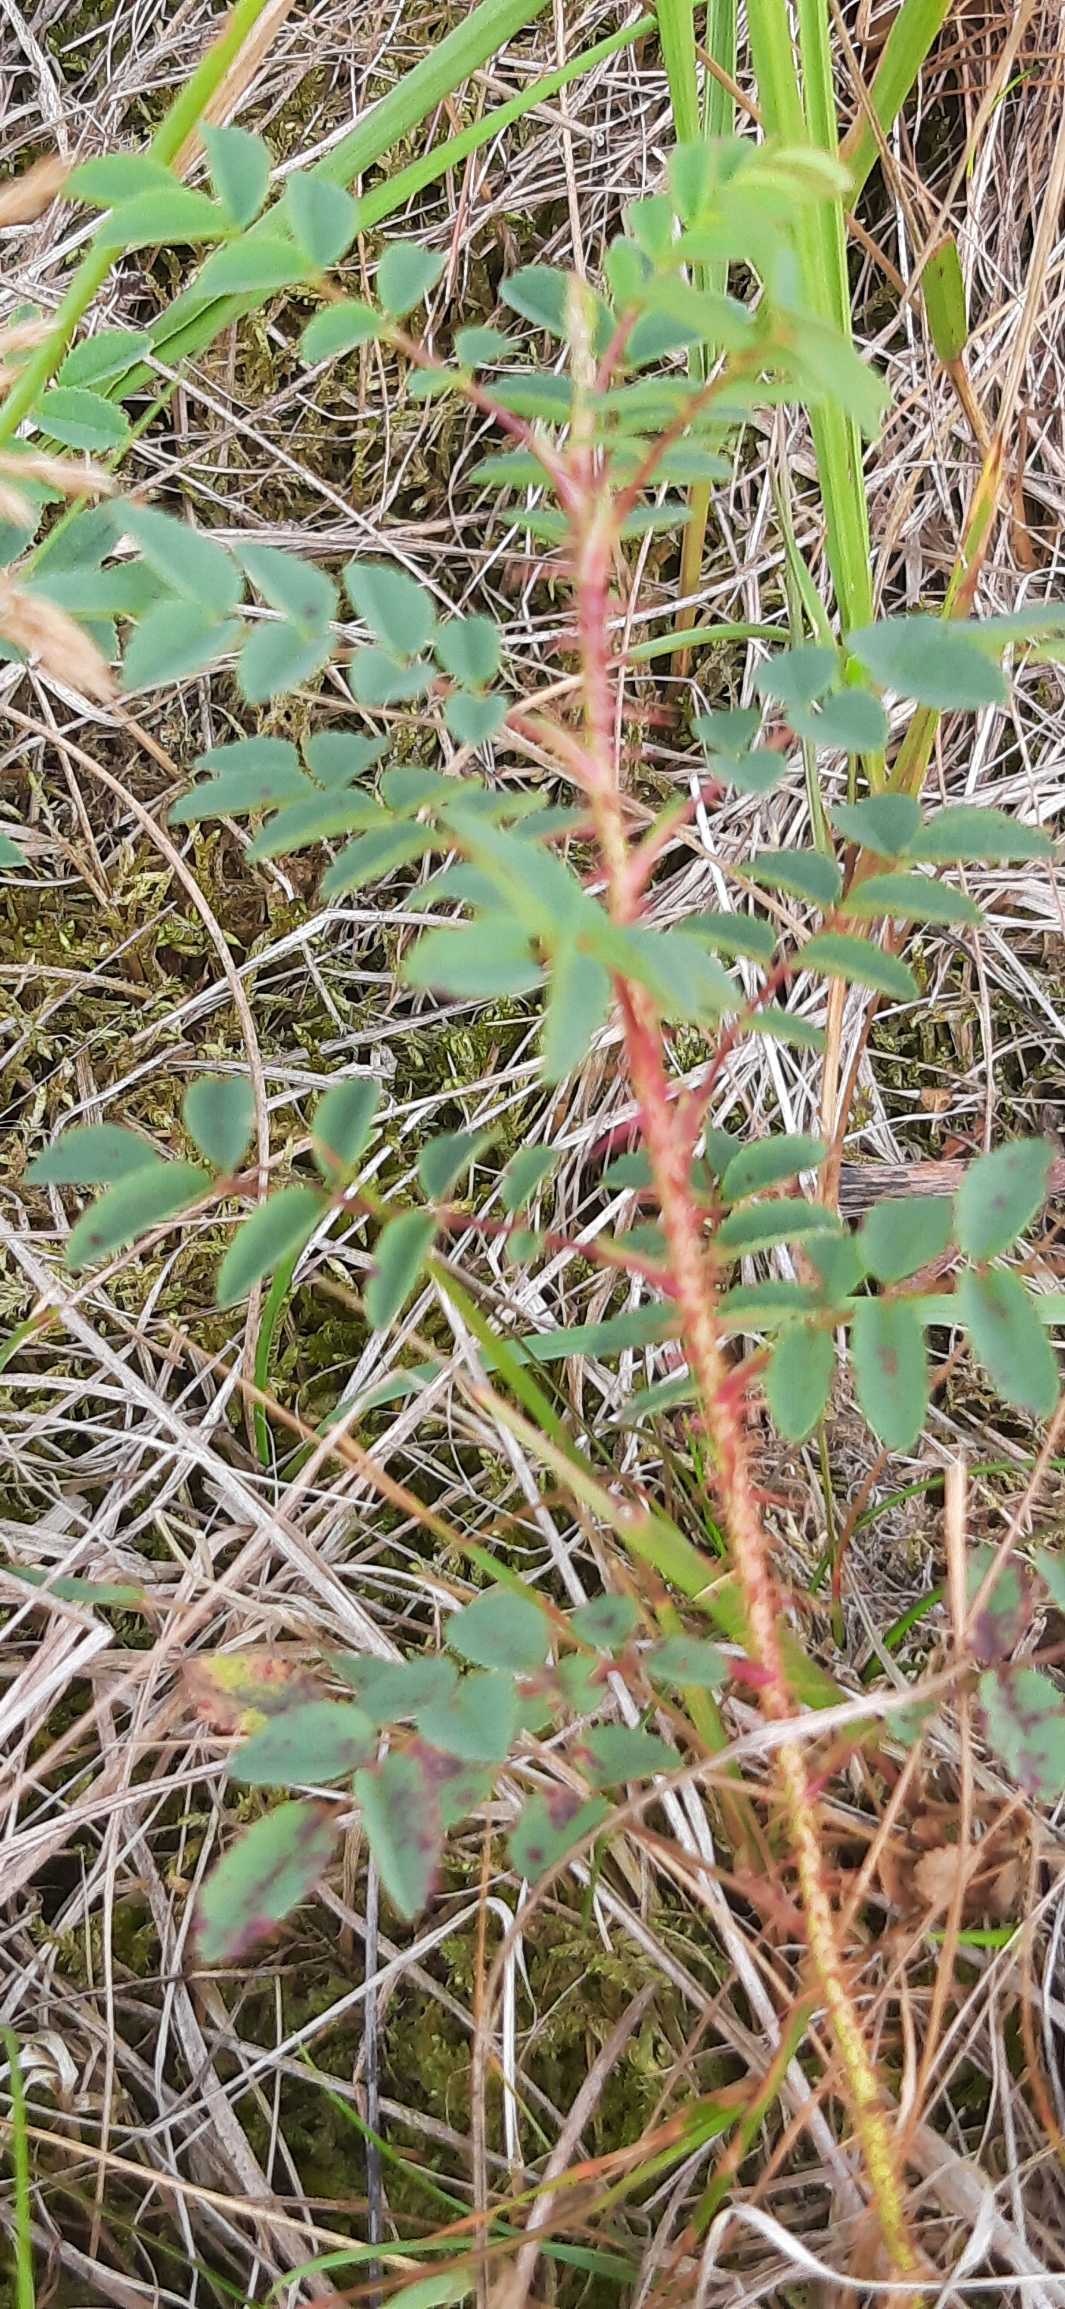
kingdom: Plantae
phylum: Tracheophyta
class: Magnoliopsida
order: Rosales
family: Rosaceae
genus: Rosa
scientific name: Rosa spinosissima
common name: Klit-rose
